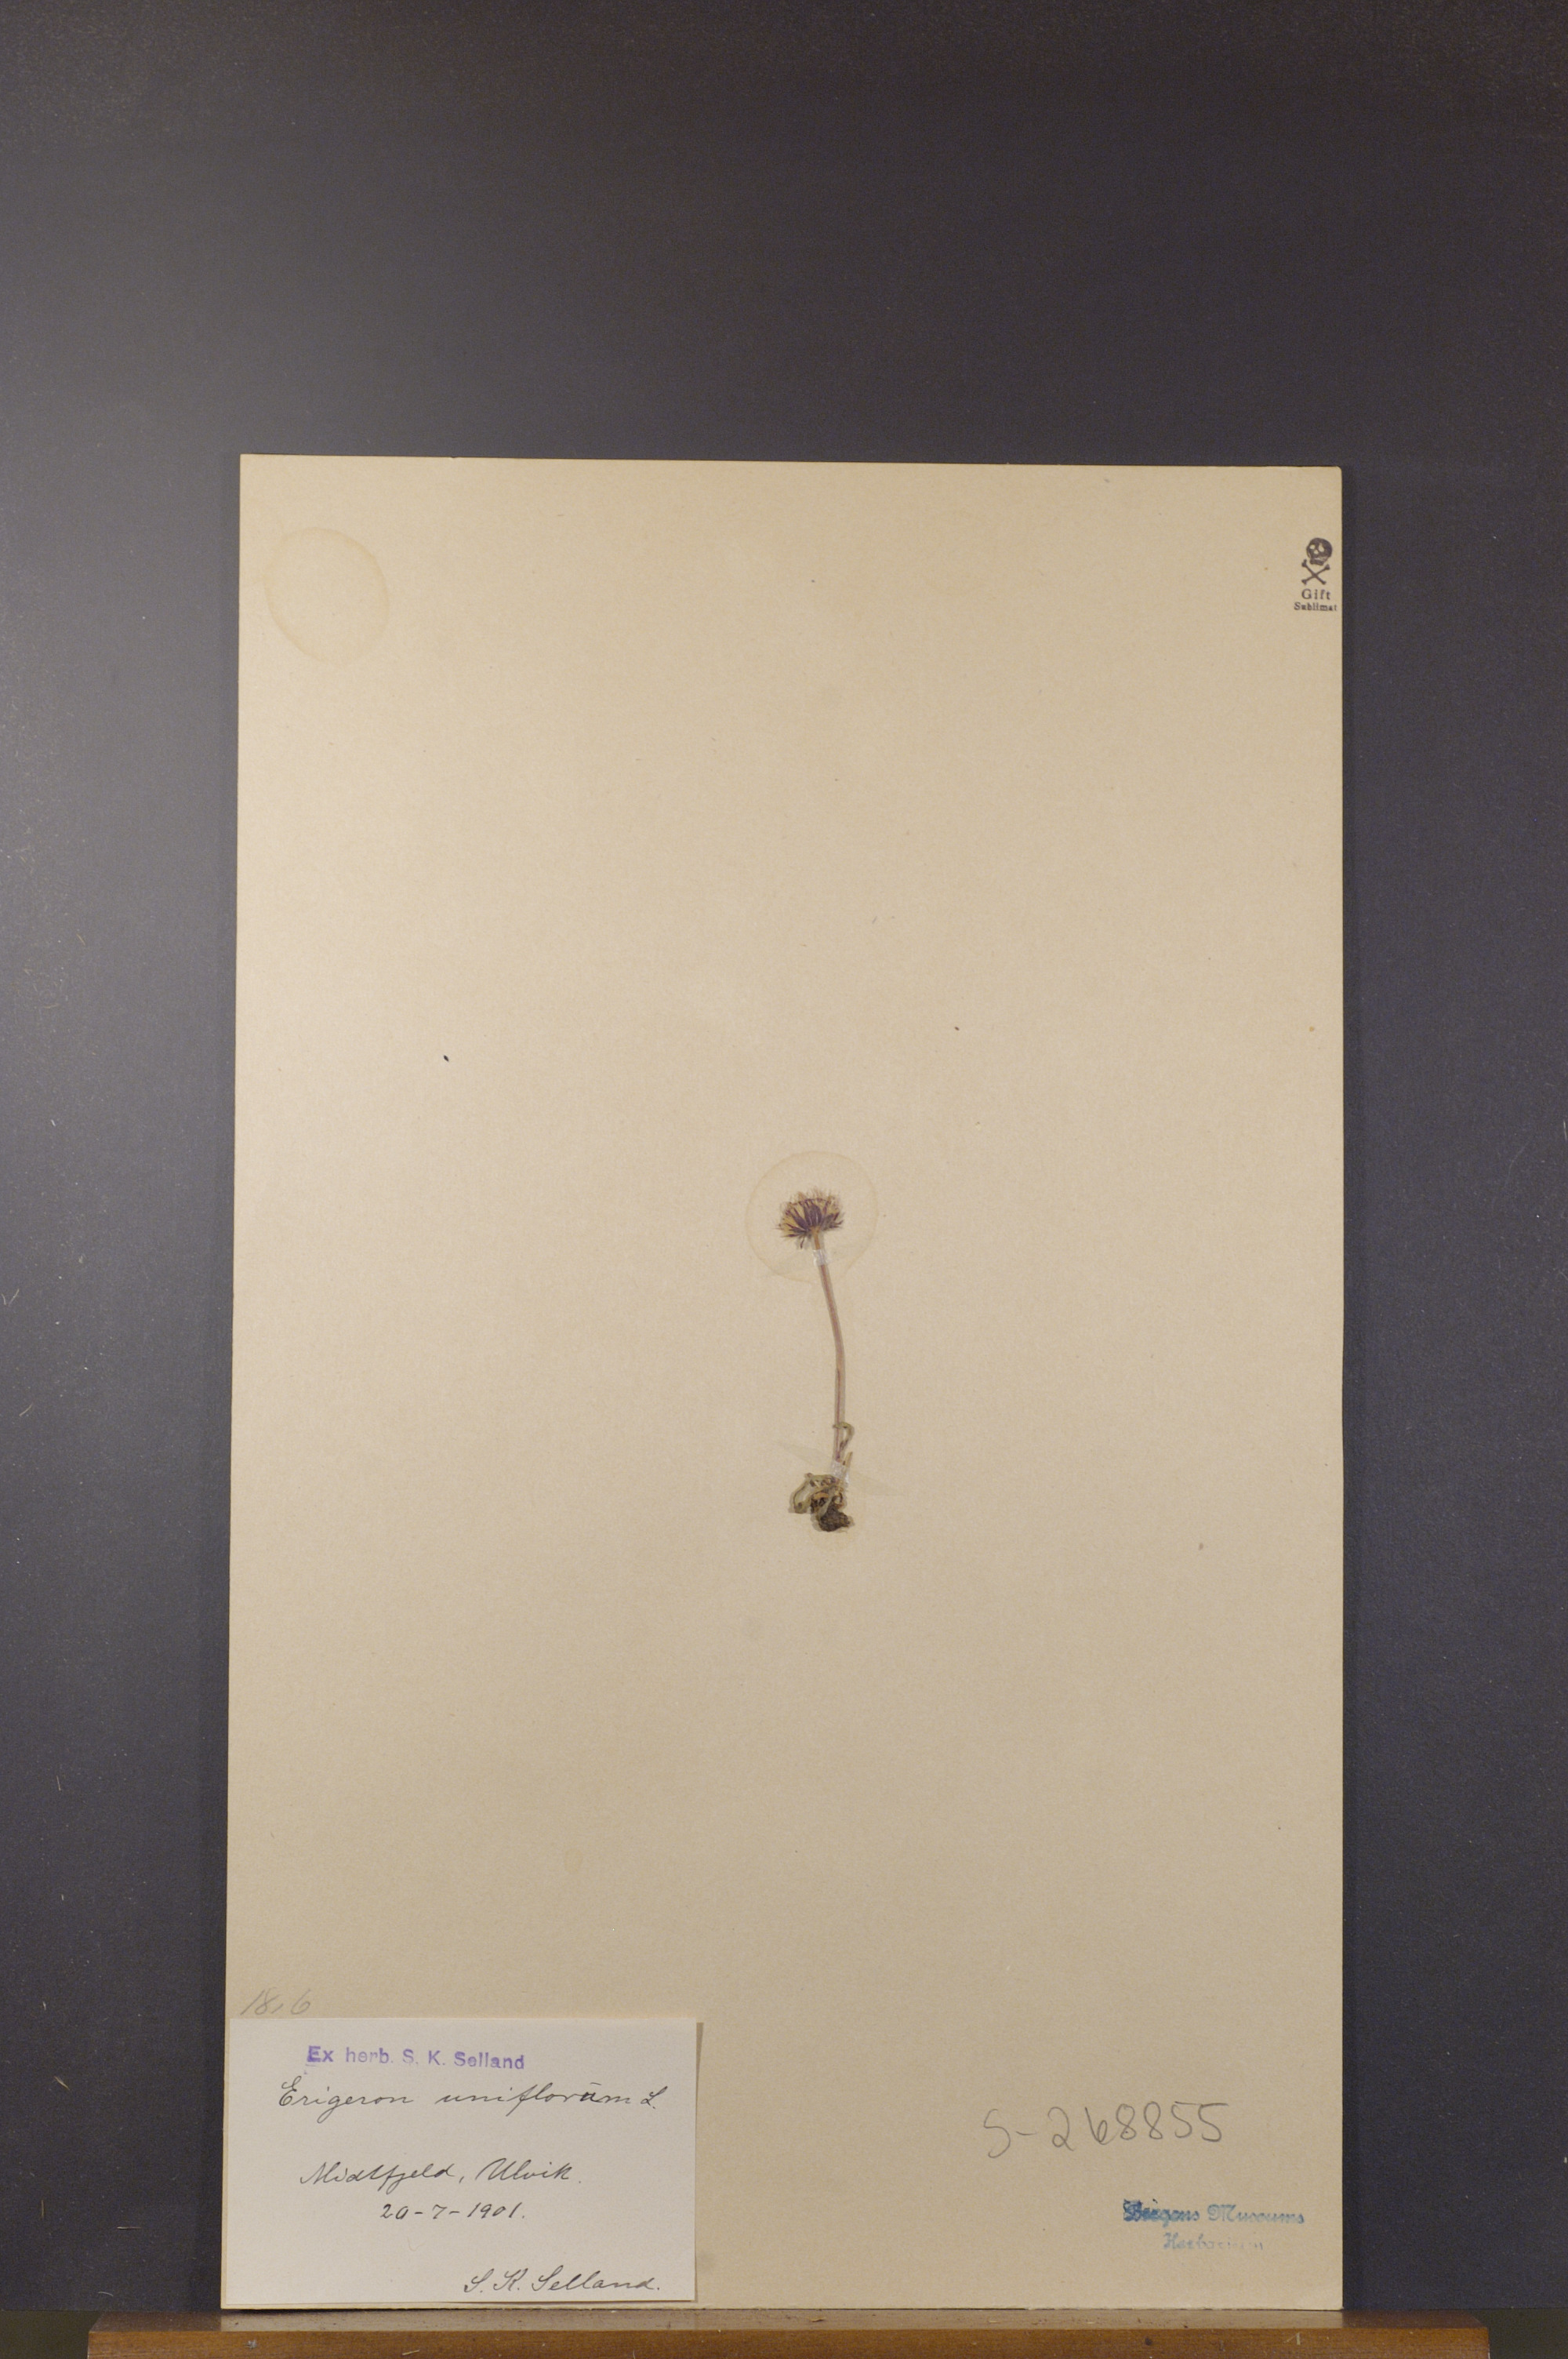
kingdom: Plantae
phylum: Tracheophyta
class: Magnoliopsida
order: Asterales
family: Asteraceae
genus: Erigeron
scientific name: Erigeron uniflorus
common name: Northern daisy
